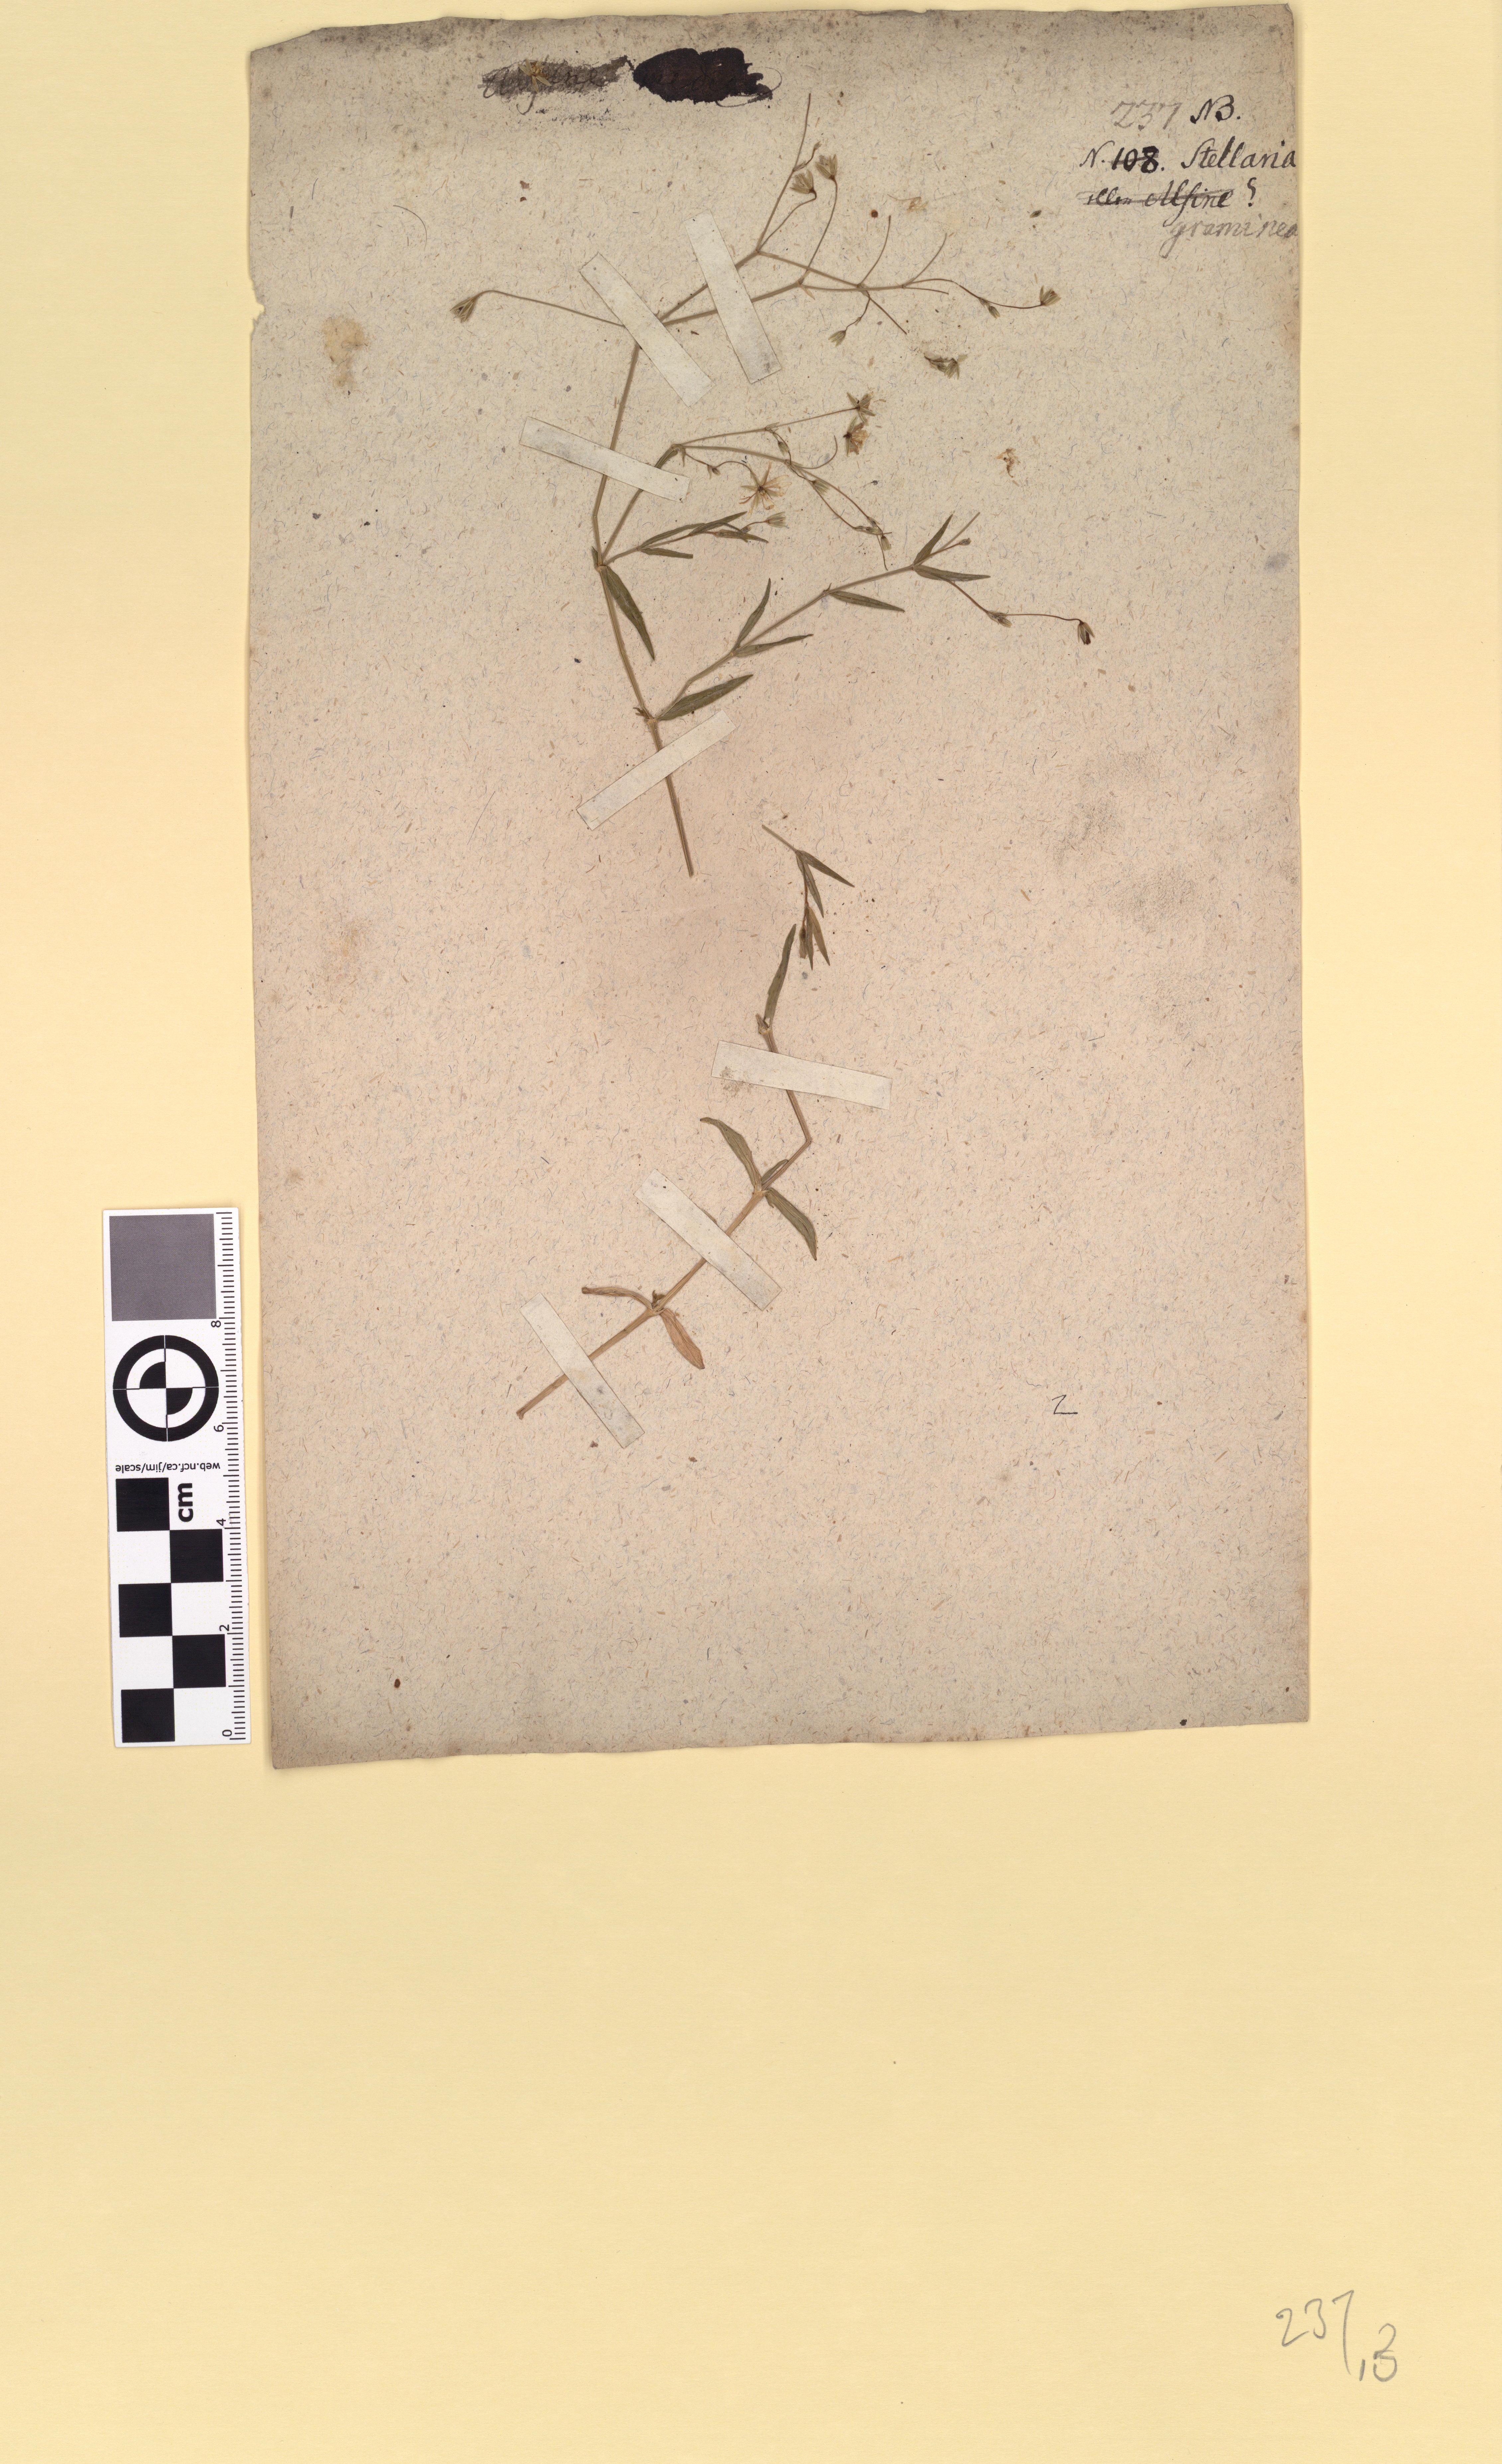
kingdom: Plantae
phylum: Tracheophyta
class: Magnoliopsida
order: Caryophyllales
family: Caryophyllaceae
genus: Stellaria
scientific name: Stellaria graminea
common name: Grass-like starwort
